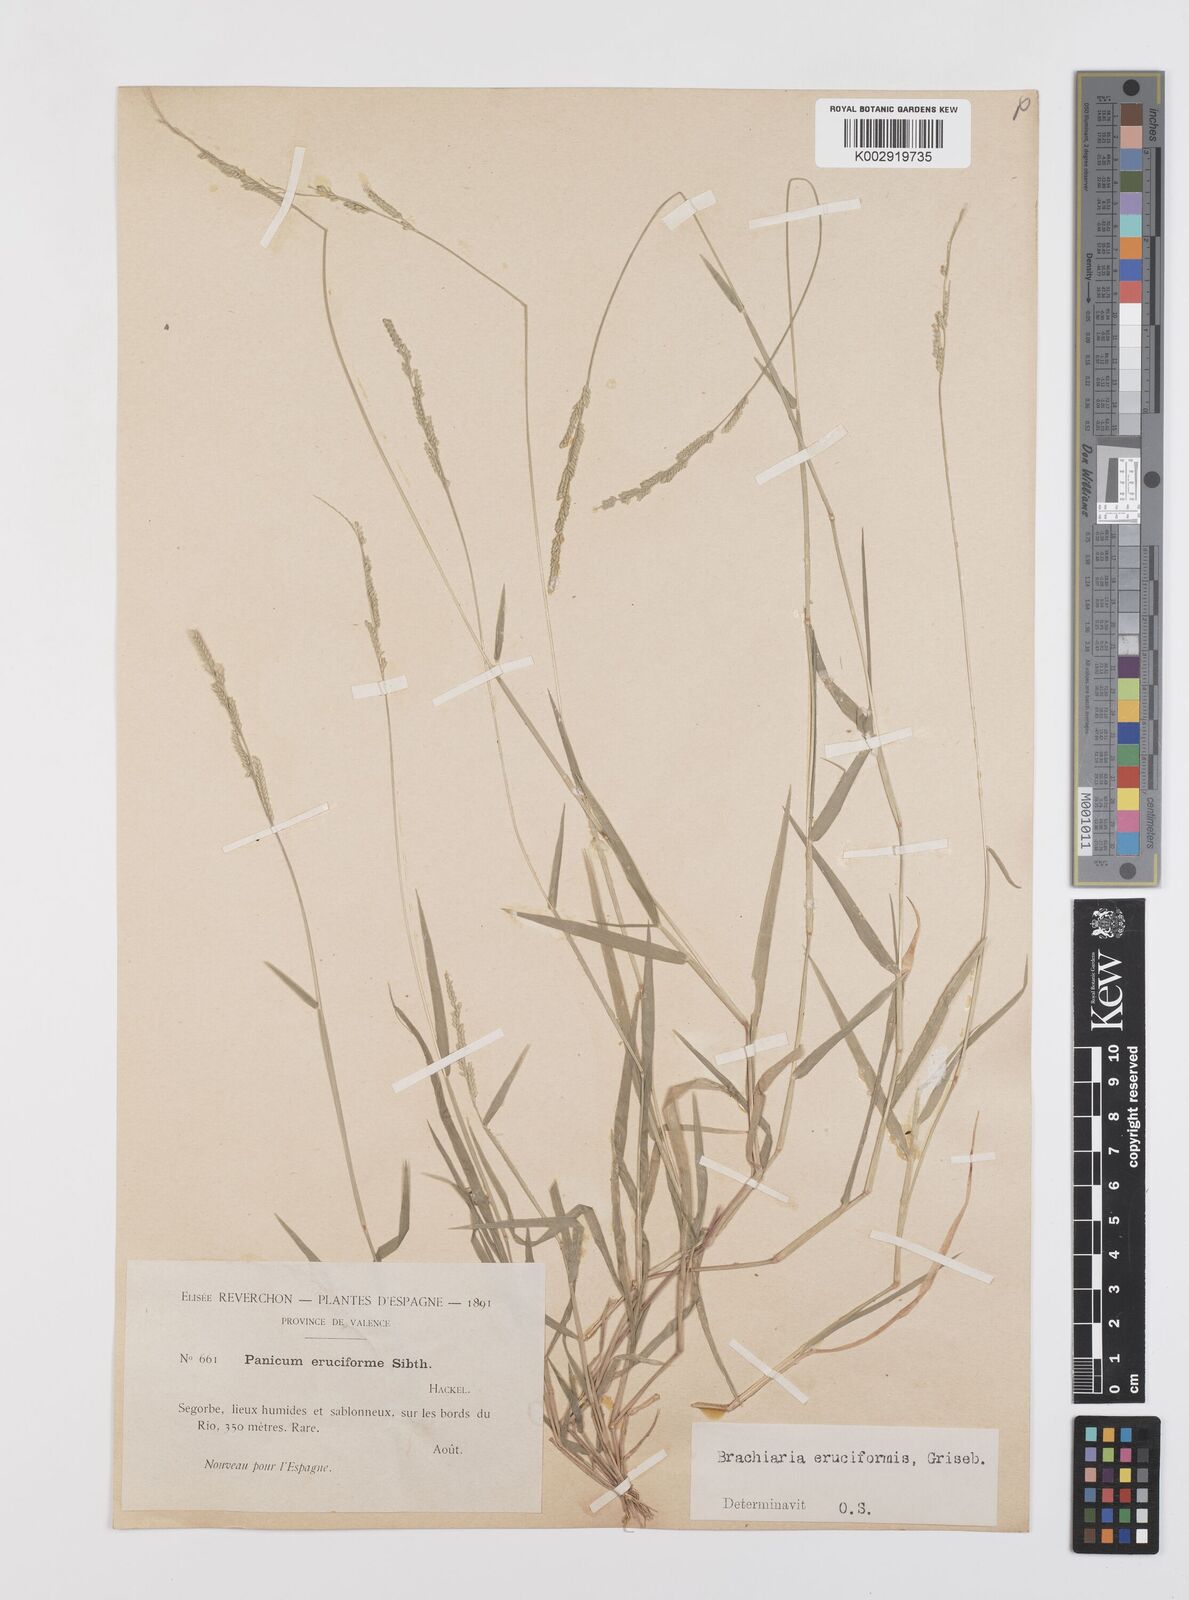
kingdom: Plantae
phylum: Tracheophyta
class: Liliopsida
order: Poales
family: Poaceae
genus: Moorochloa
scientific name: Moorochloa eruciformis
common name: Sweet signalgrass
